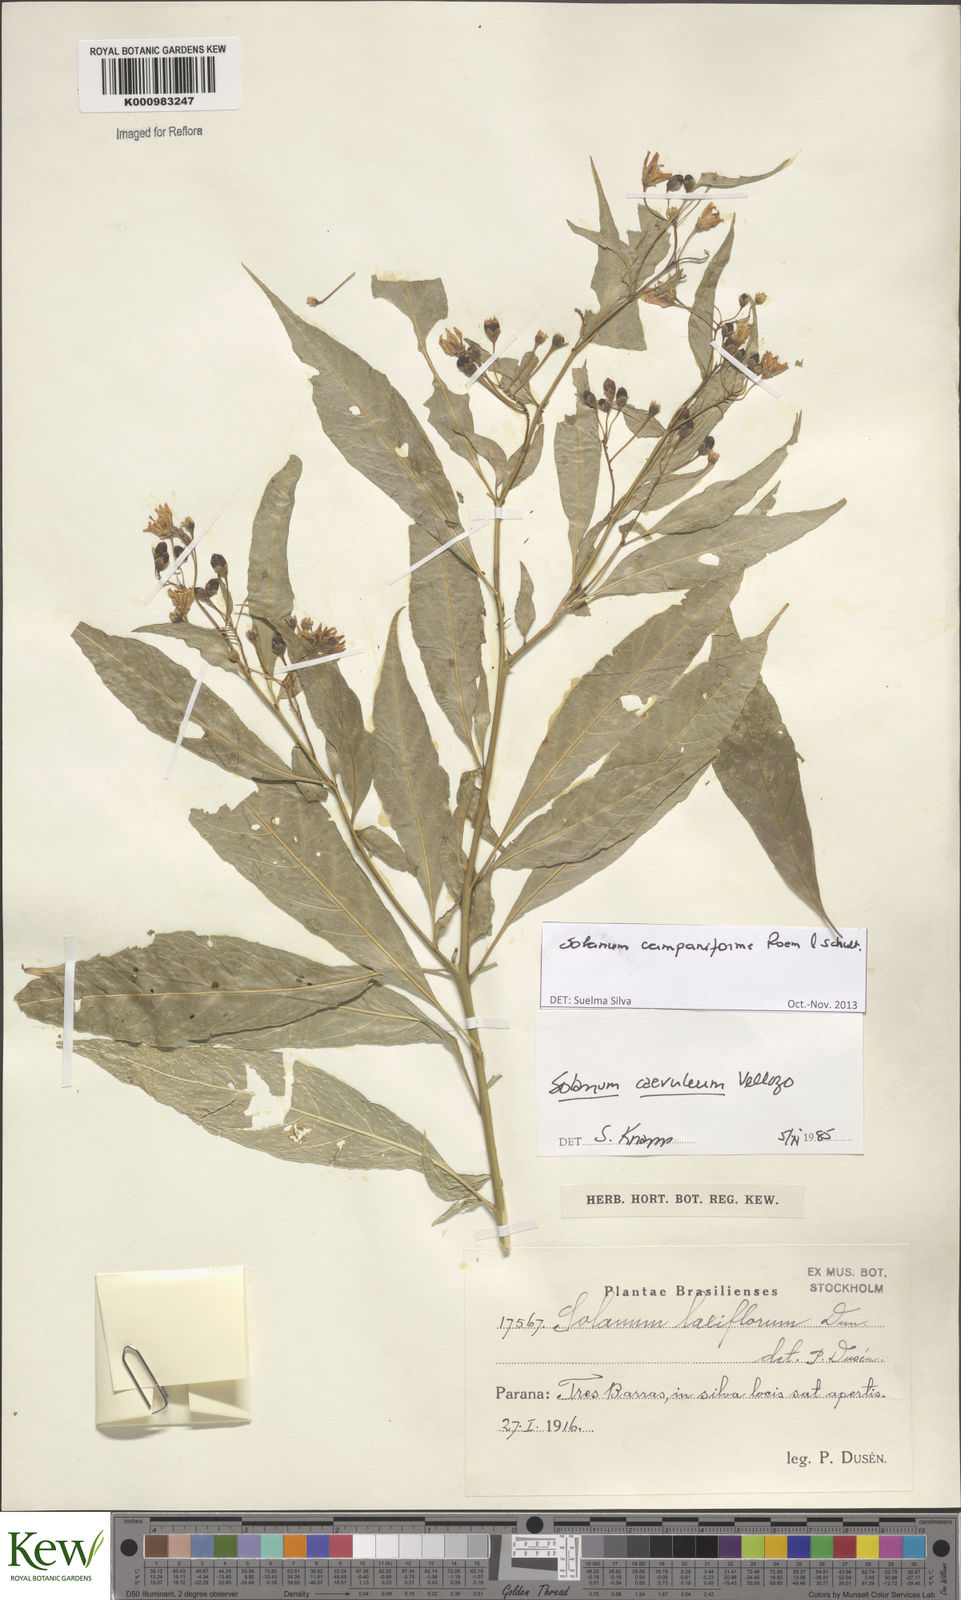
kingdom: Plantae
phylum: Tracheophyta
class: Magnoliopsida
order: Solanales
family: Solanaceae
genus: Solanum
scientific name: Solanum campaniforme
